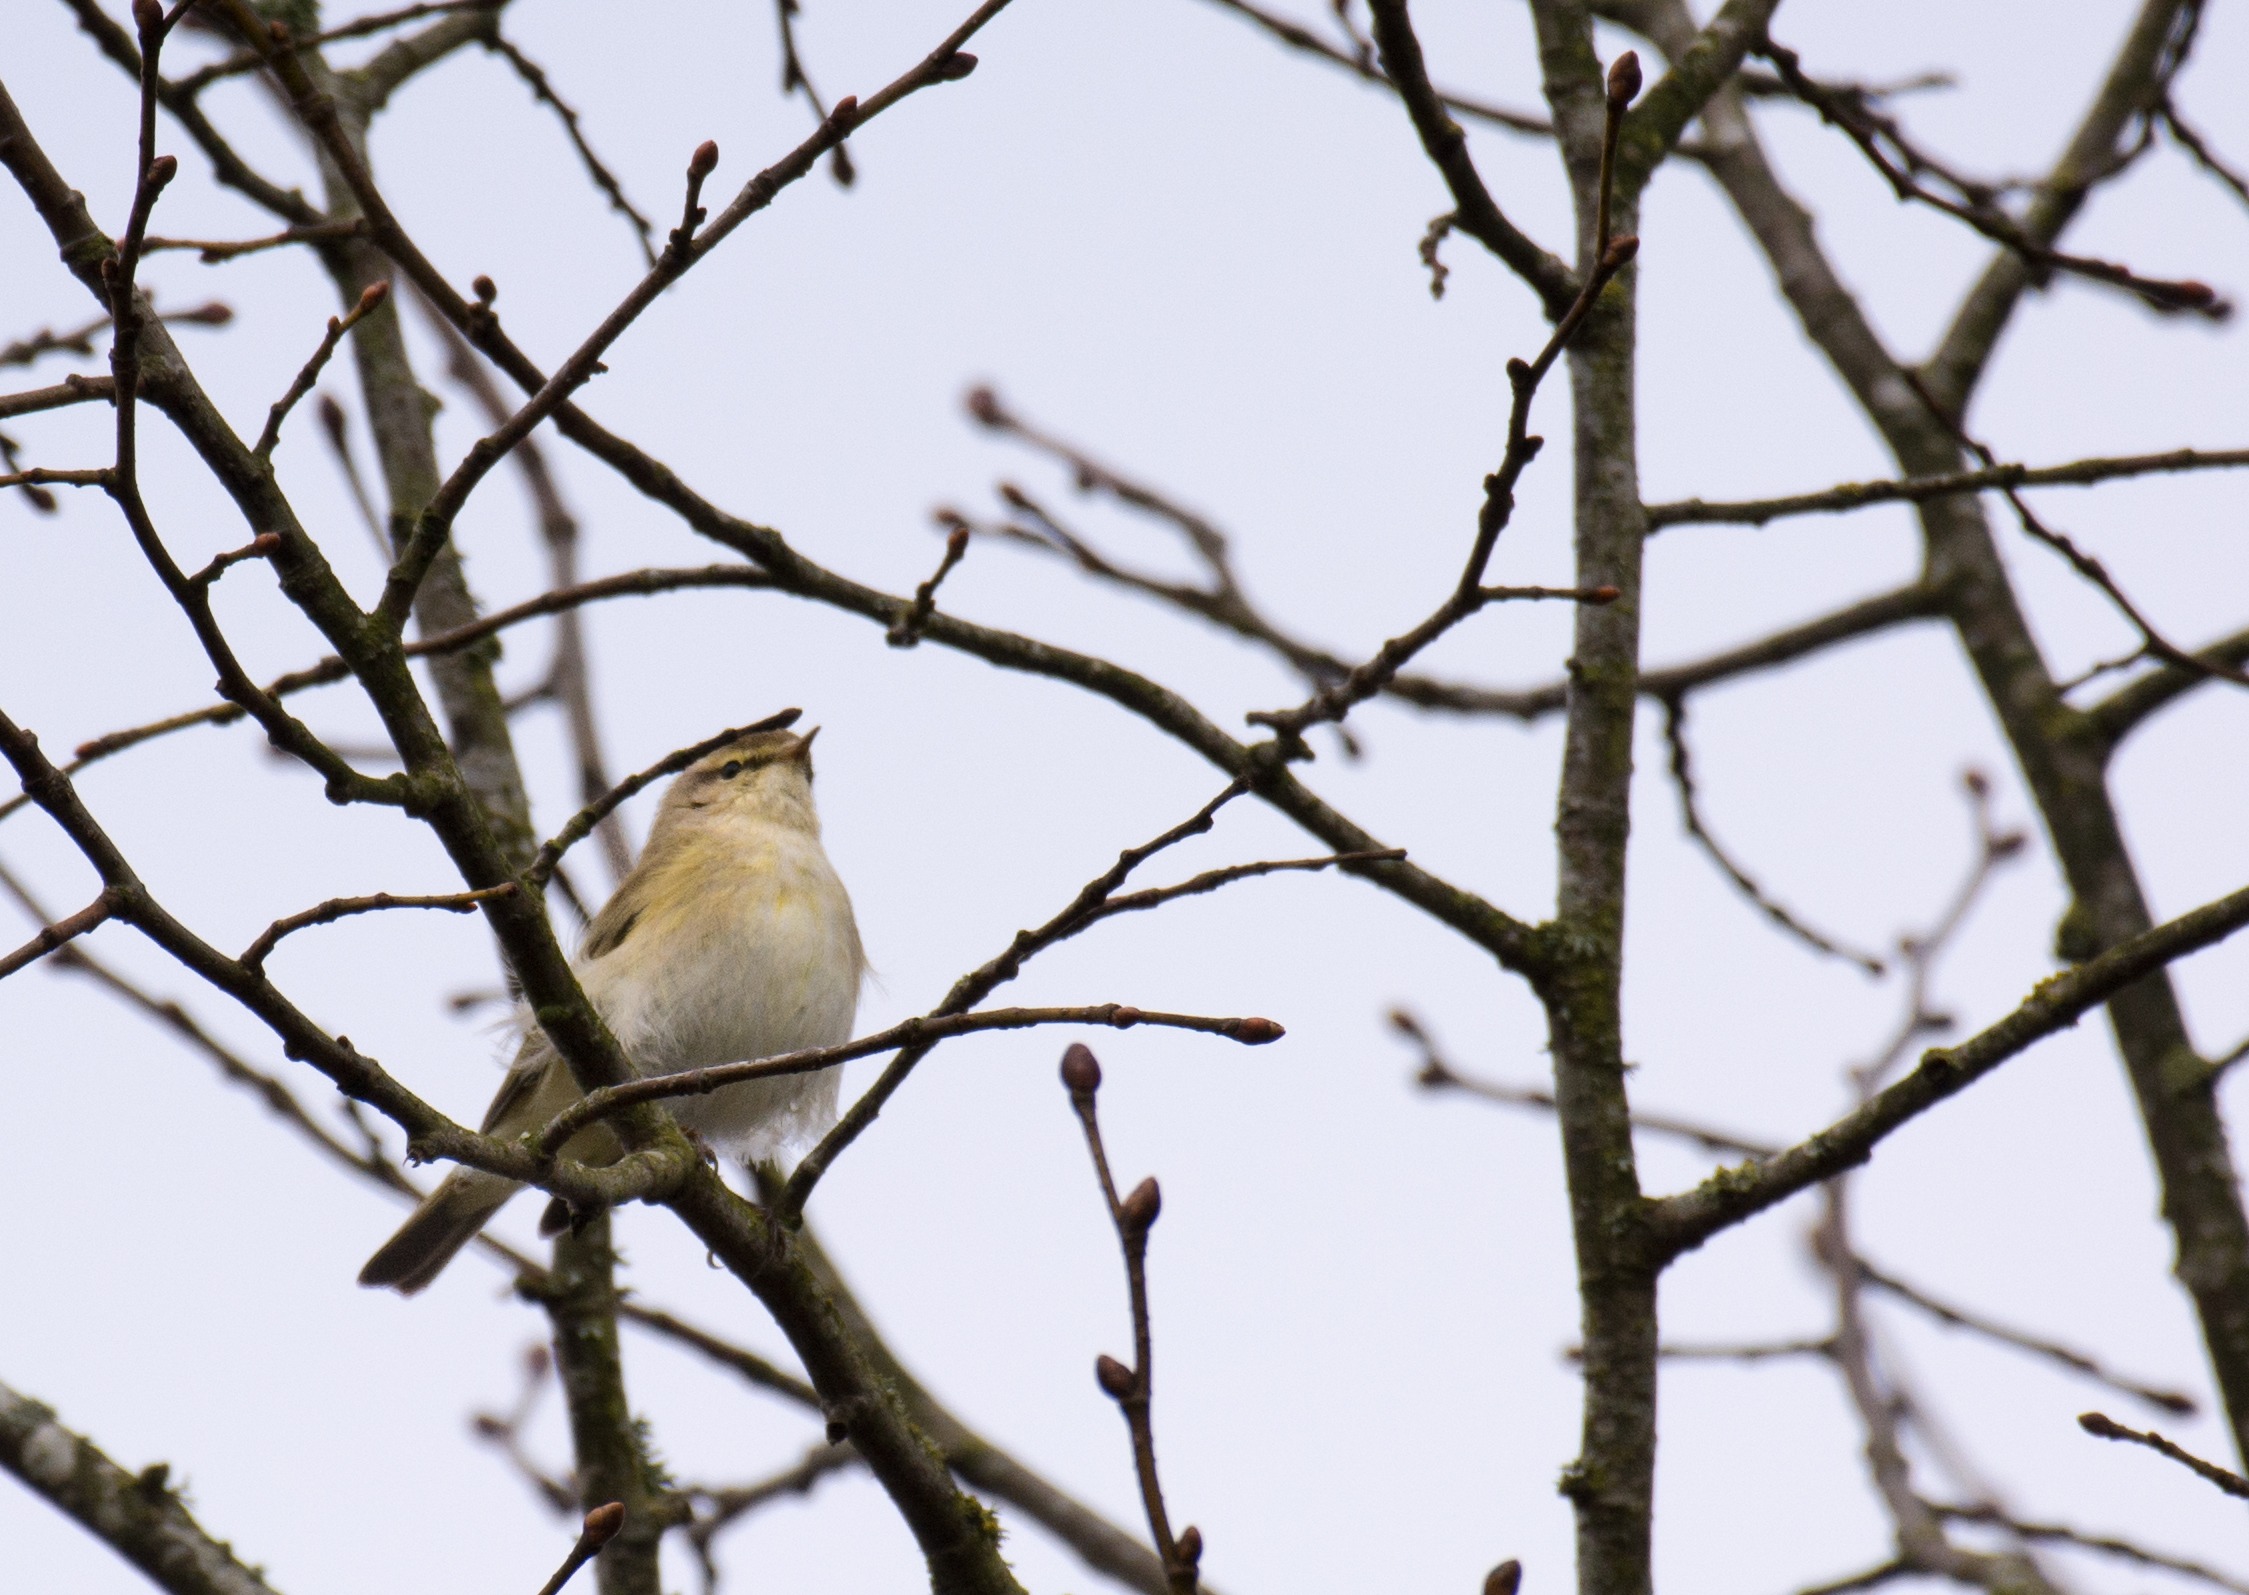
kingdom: Animalia
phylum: Chordata
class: Aves
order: Passeriformes
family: Phylloscopidae
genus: Phylloscopus
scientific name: Phylloscopus collybita
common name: Gransanger
